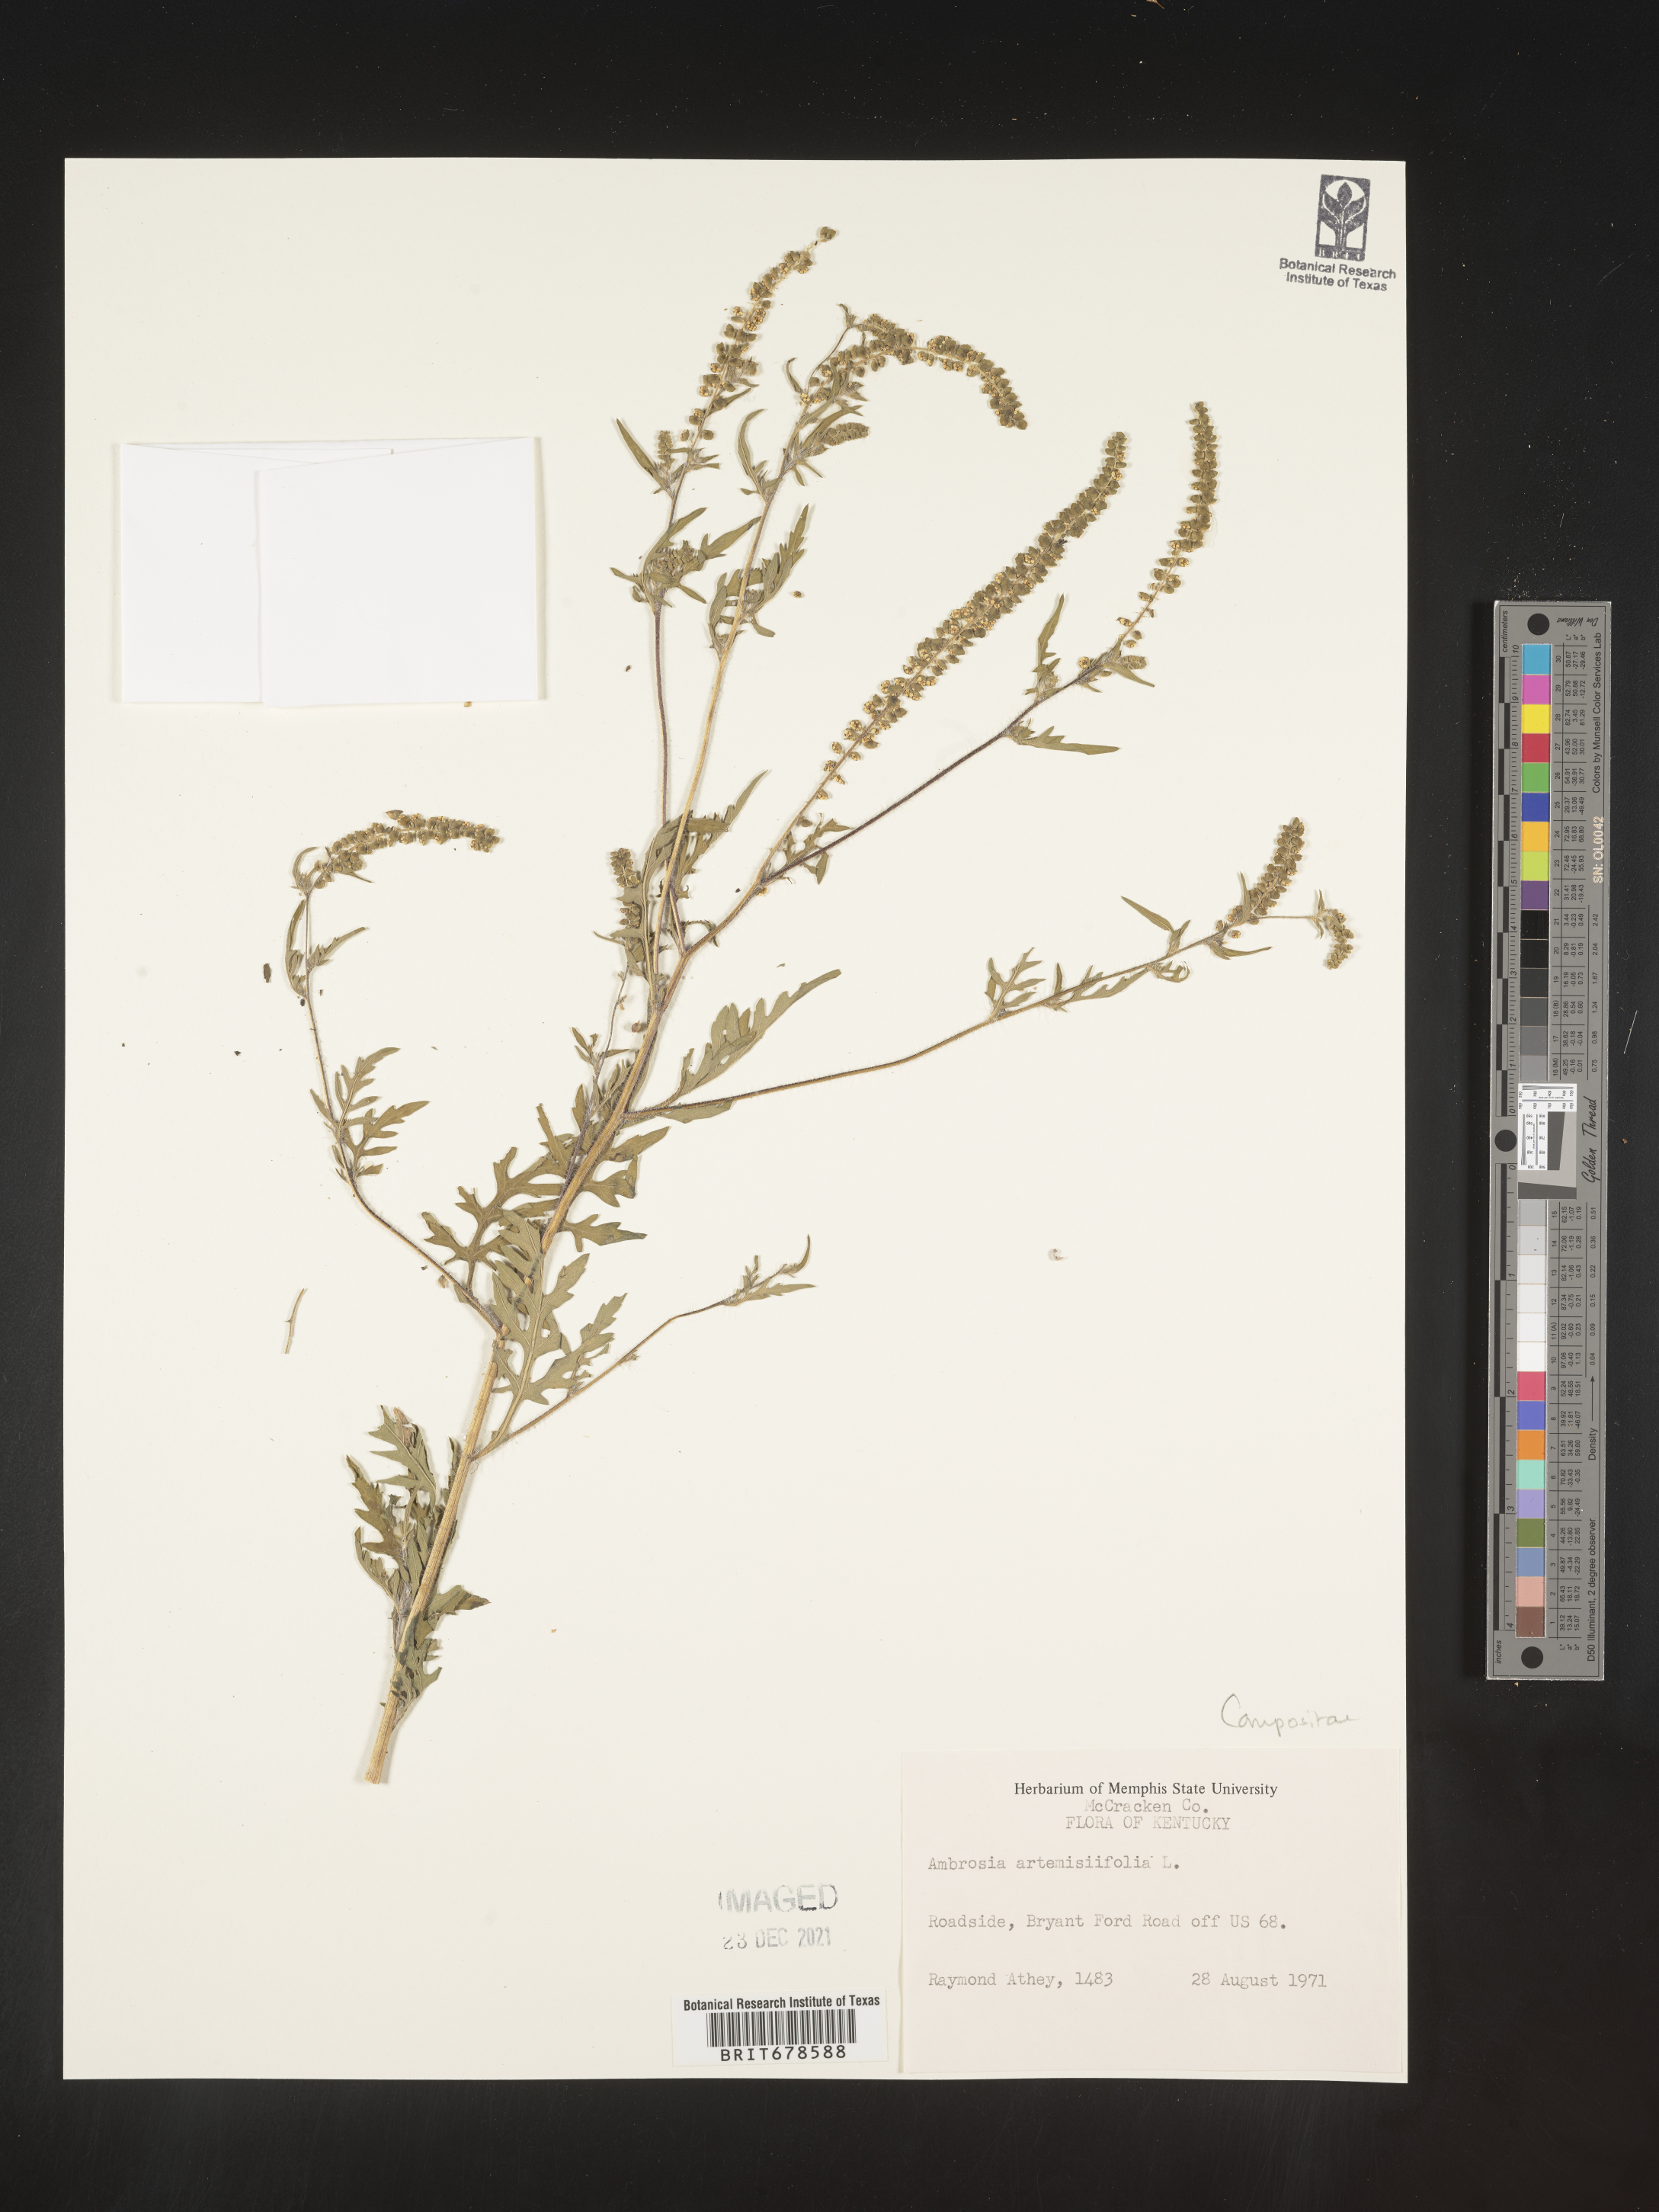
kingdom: Plantae
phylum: Tracheophyta
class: Magnoliopsida
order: Asterales
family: Asteraceae
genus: Ambrosia
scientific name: Ambrosia polystachya
